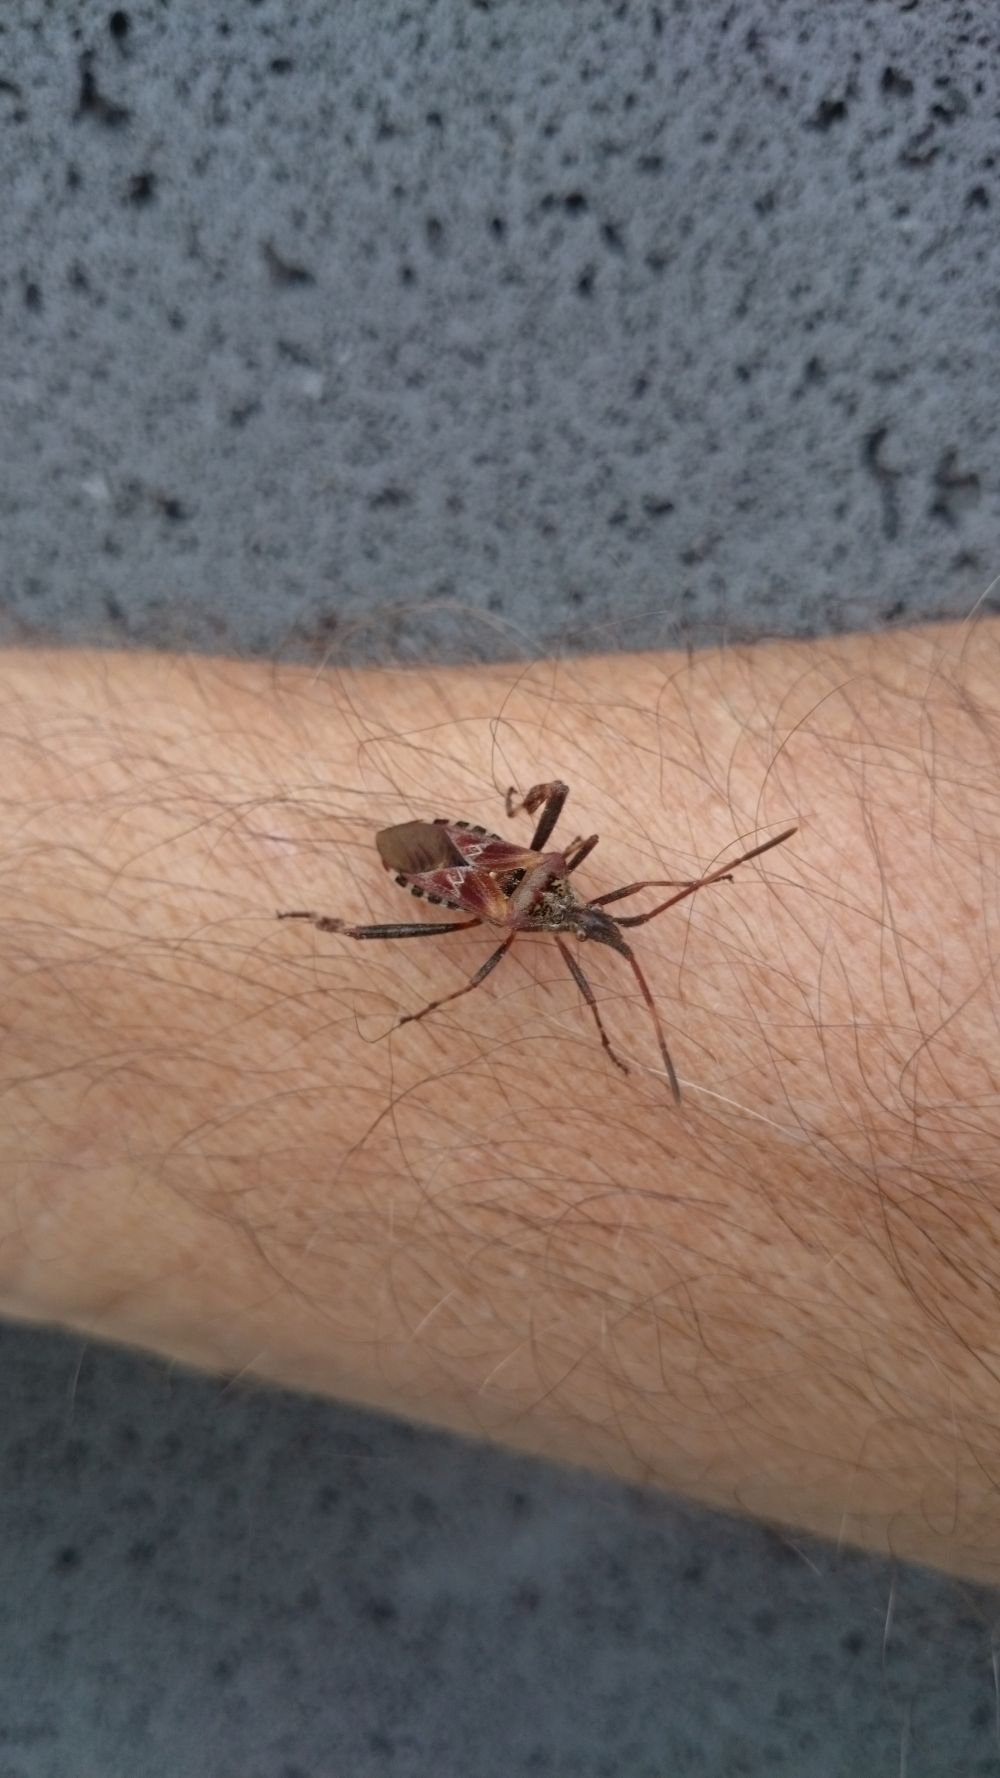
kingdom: Animalia
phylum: Arthropoda
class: Insecta
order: Hemiptera
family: Coreidae
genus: Leptoglossus
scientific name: Leptoglossus occidentalis
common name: Western conifer-seed bug
